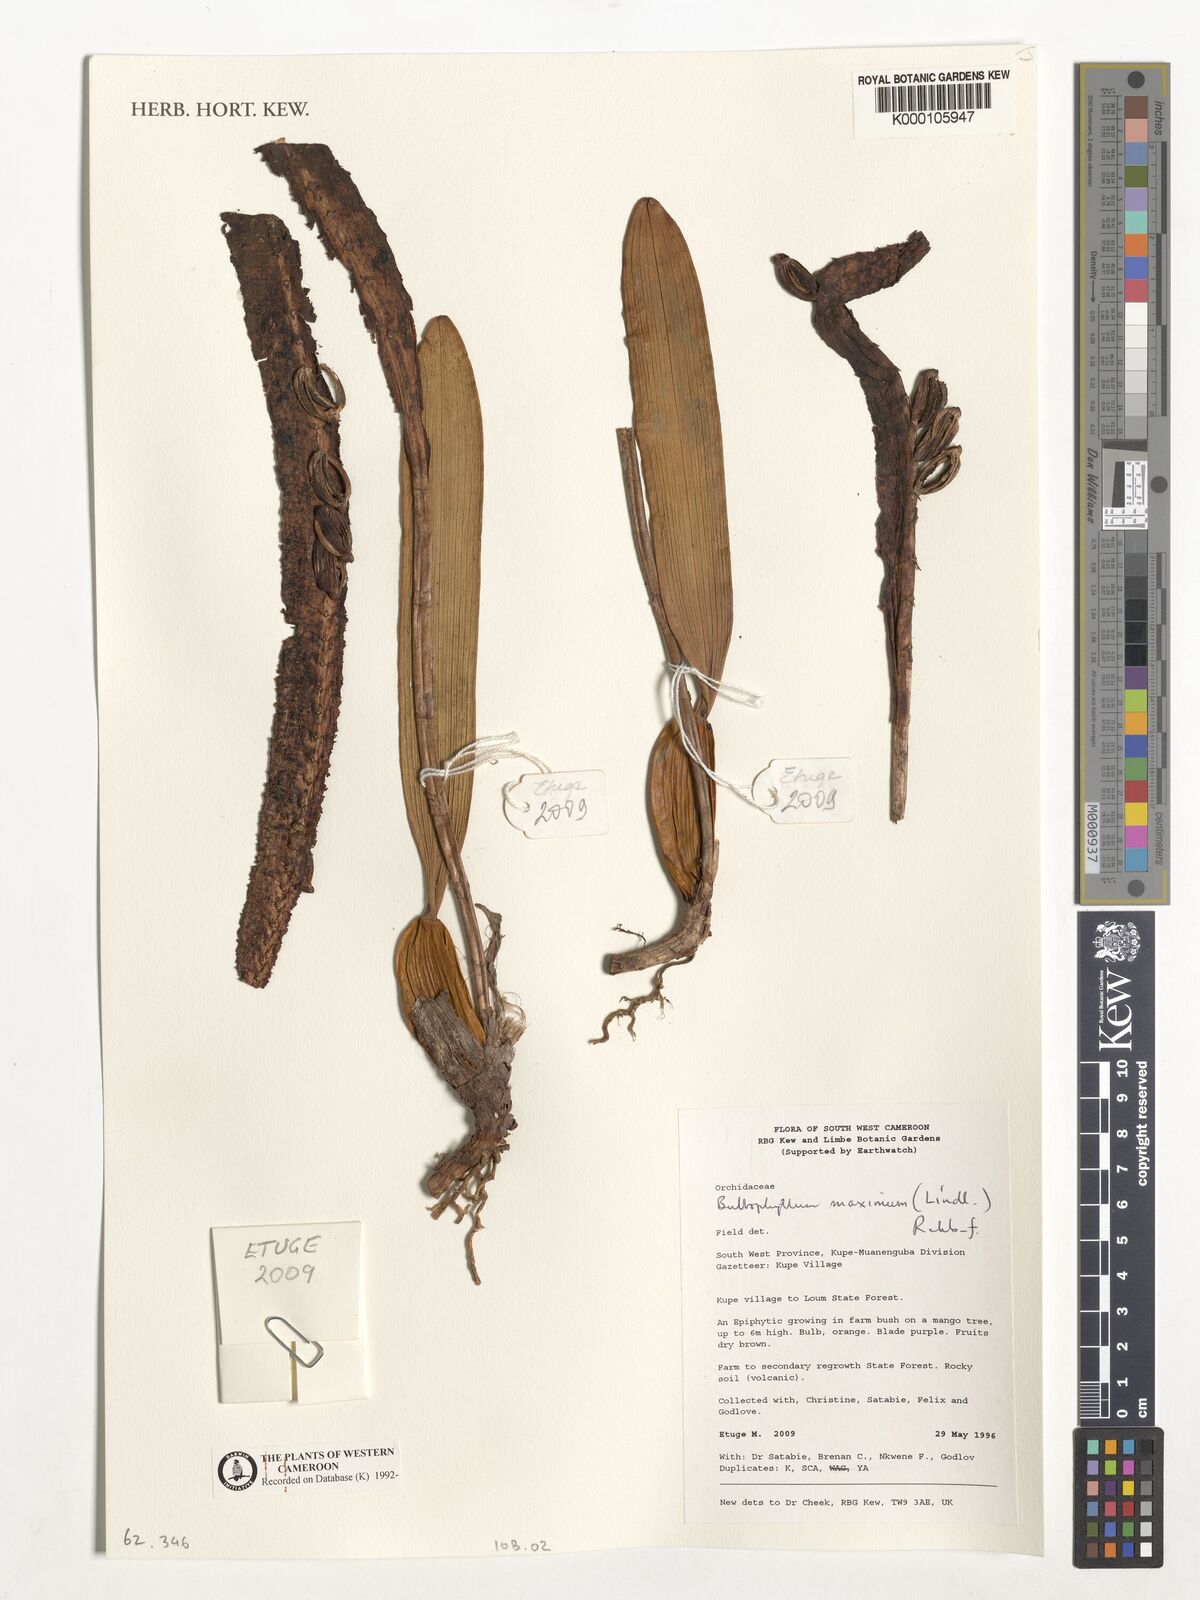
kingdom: Plantae
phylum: Tracheophyta
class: Liliopsida
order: Asparagales
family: Orchidaceae
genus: Bulbophyllum
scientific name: Bulbophyllum maximum
